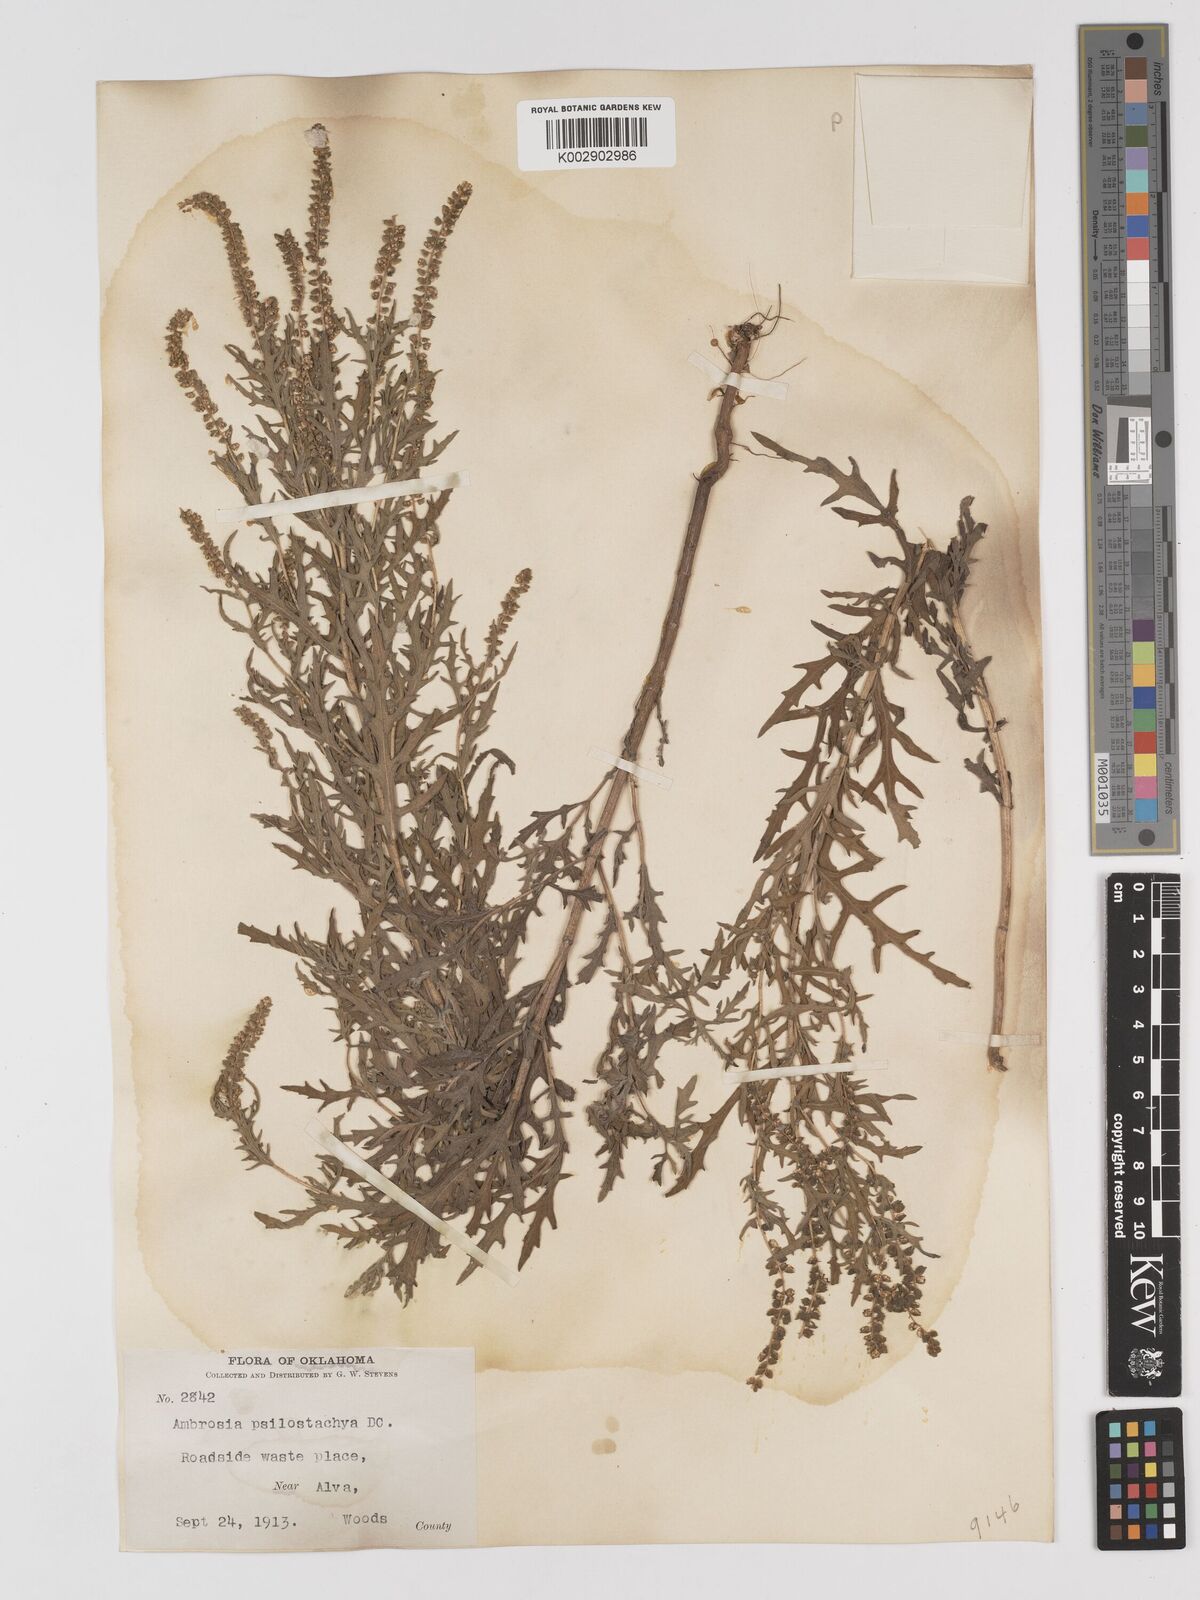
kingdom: Plantae
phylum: Tracheophyta
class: Magnoliopsida
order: Asterales
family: Asteraceae
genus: Ambrosia
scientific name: Ambrosia psilostachya
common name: Perennial ragweed
